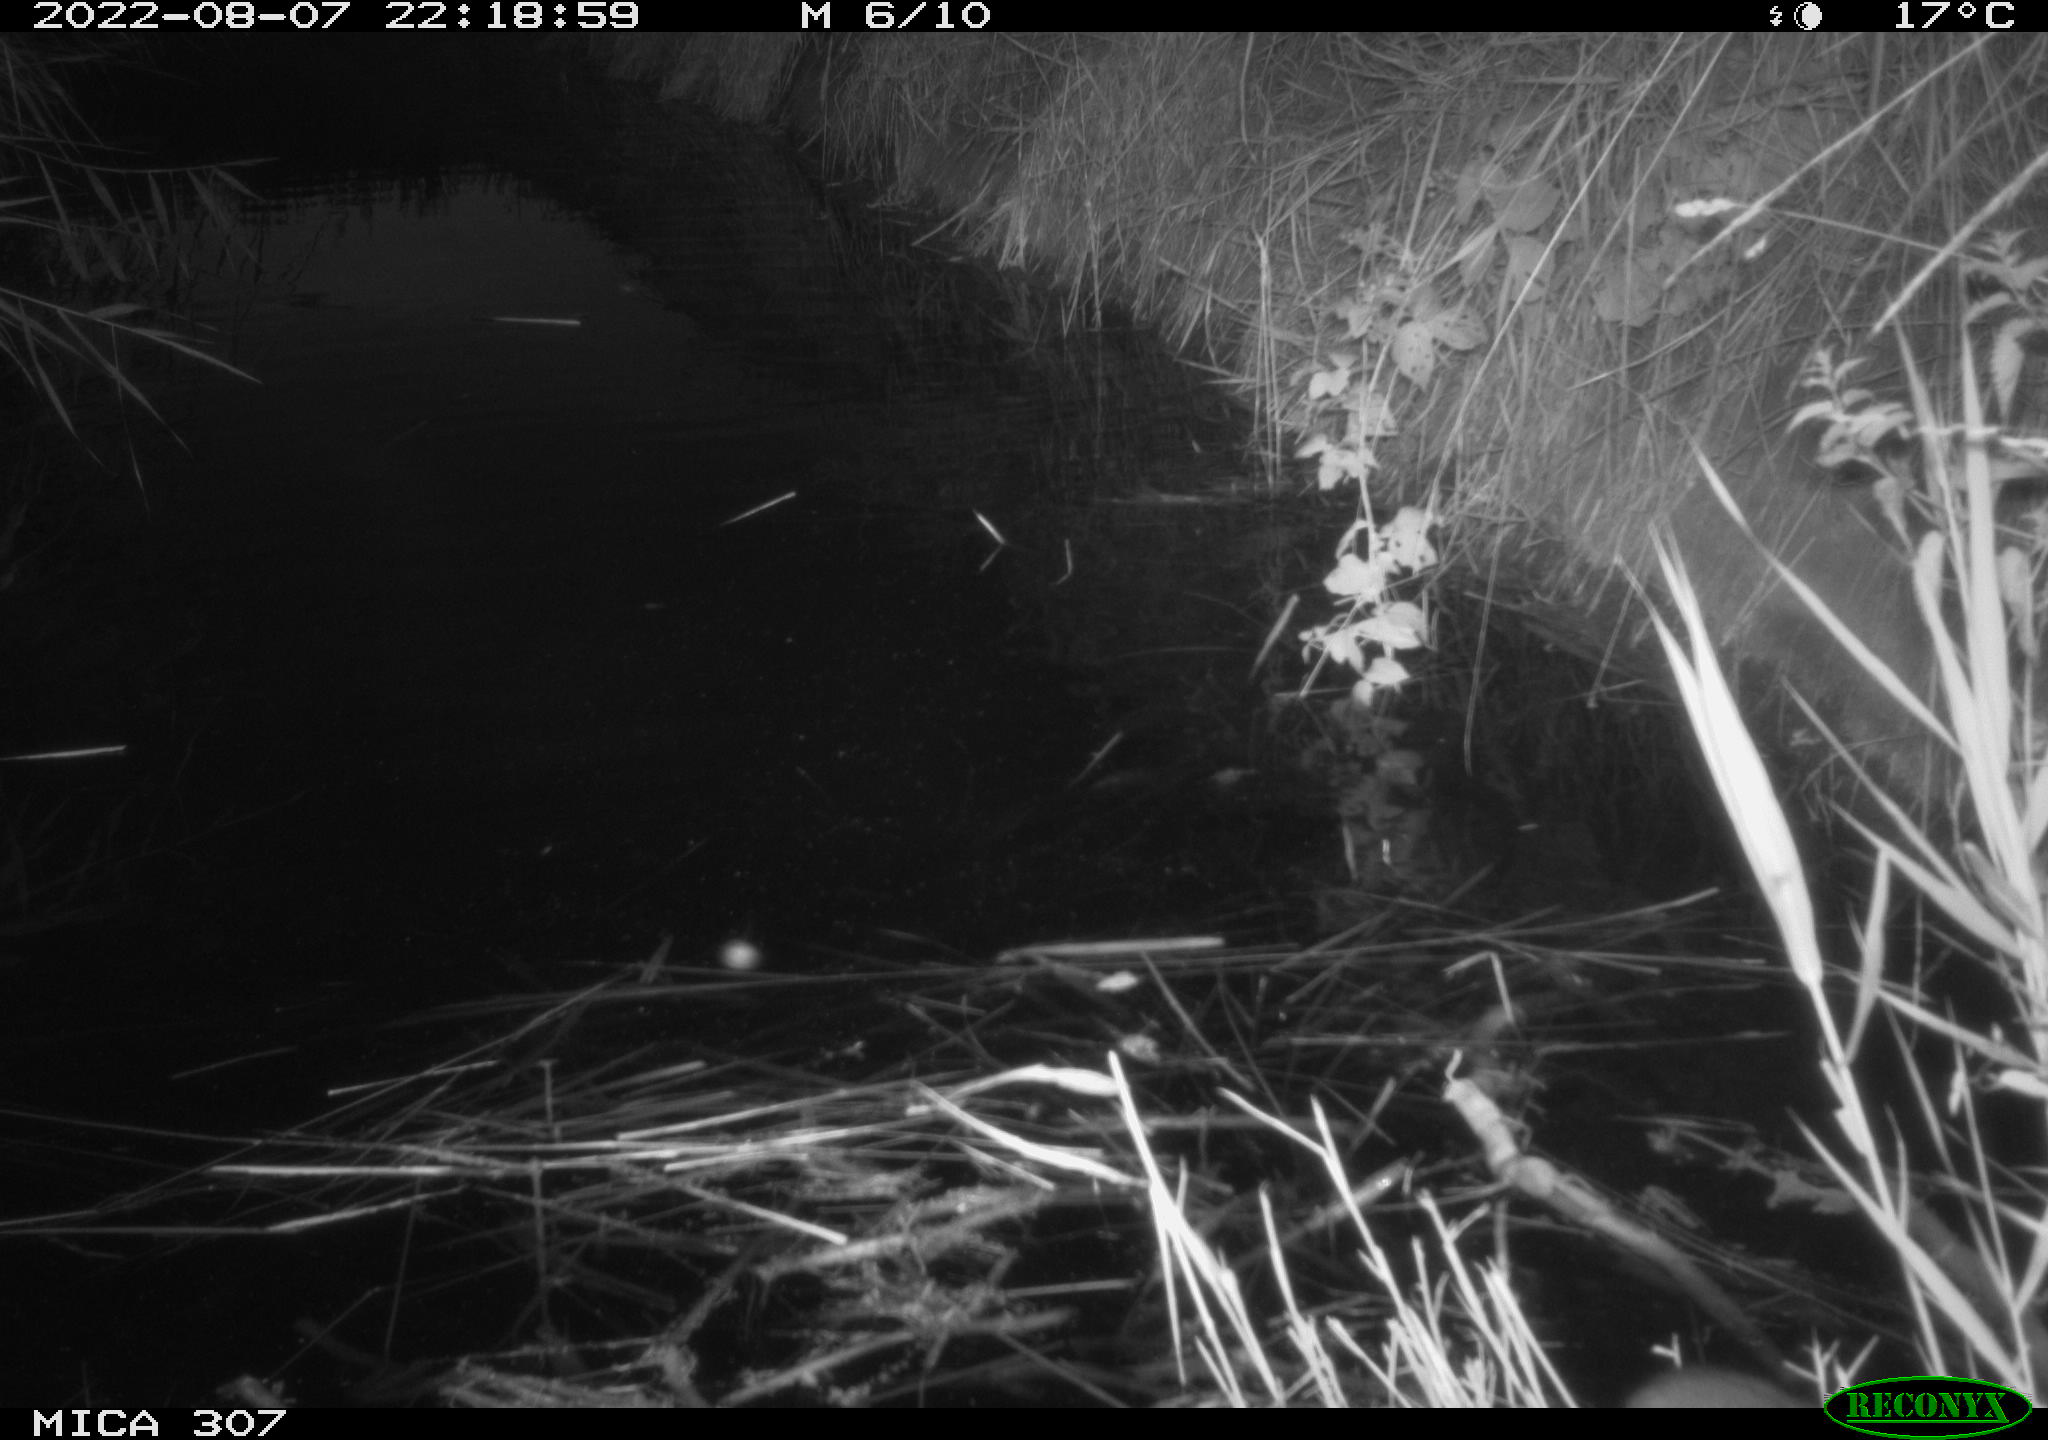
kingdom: Animalia
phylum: Chordata
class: Mammalia
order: Rodentia
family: Muridae
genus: Rattus
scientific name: Rattus norvegicus
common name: Brown rat
